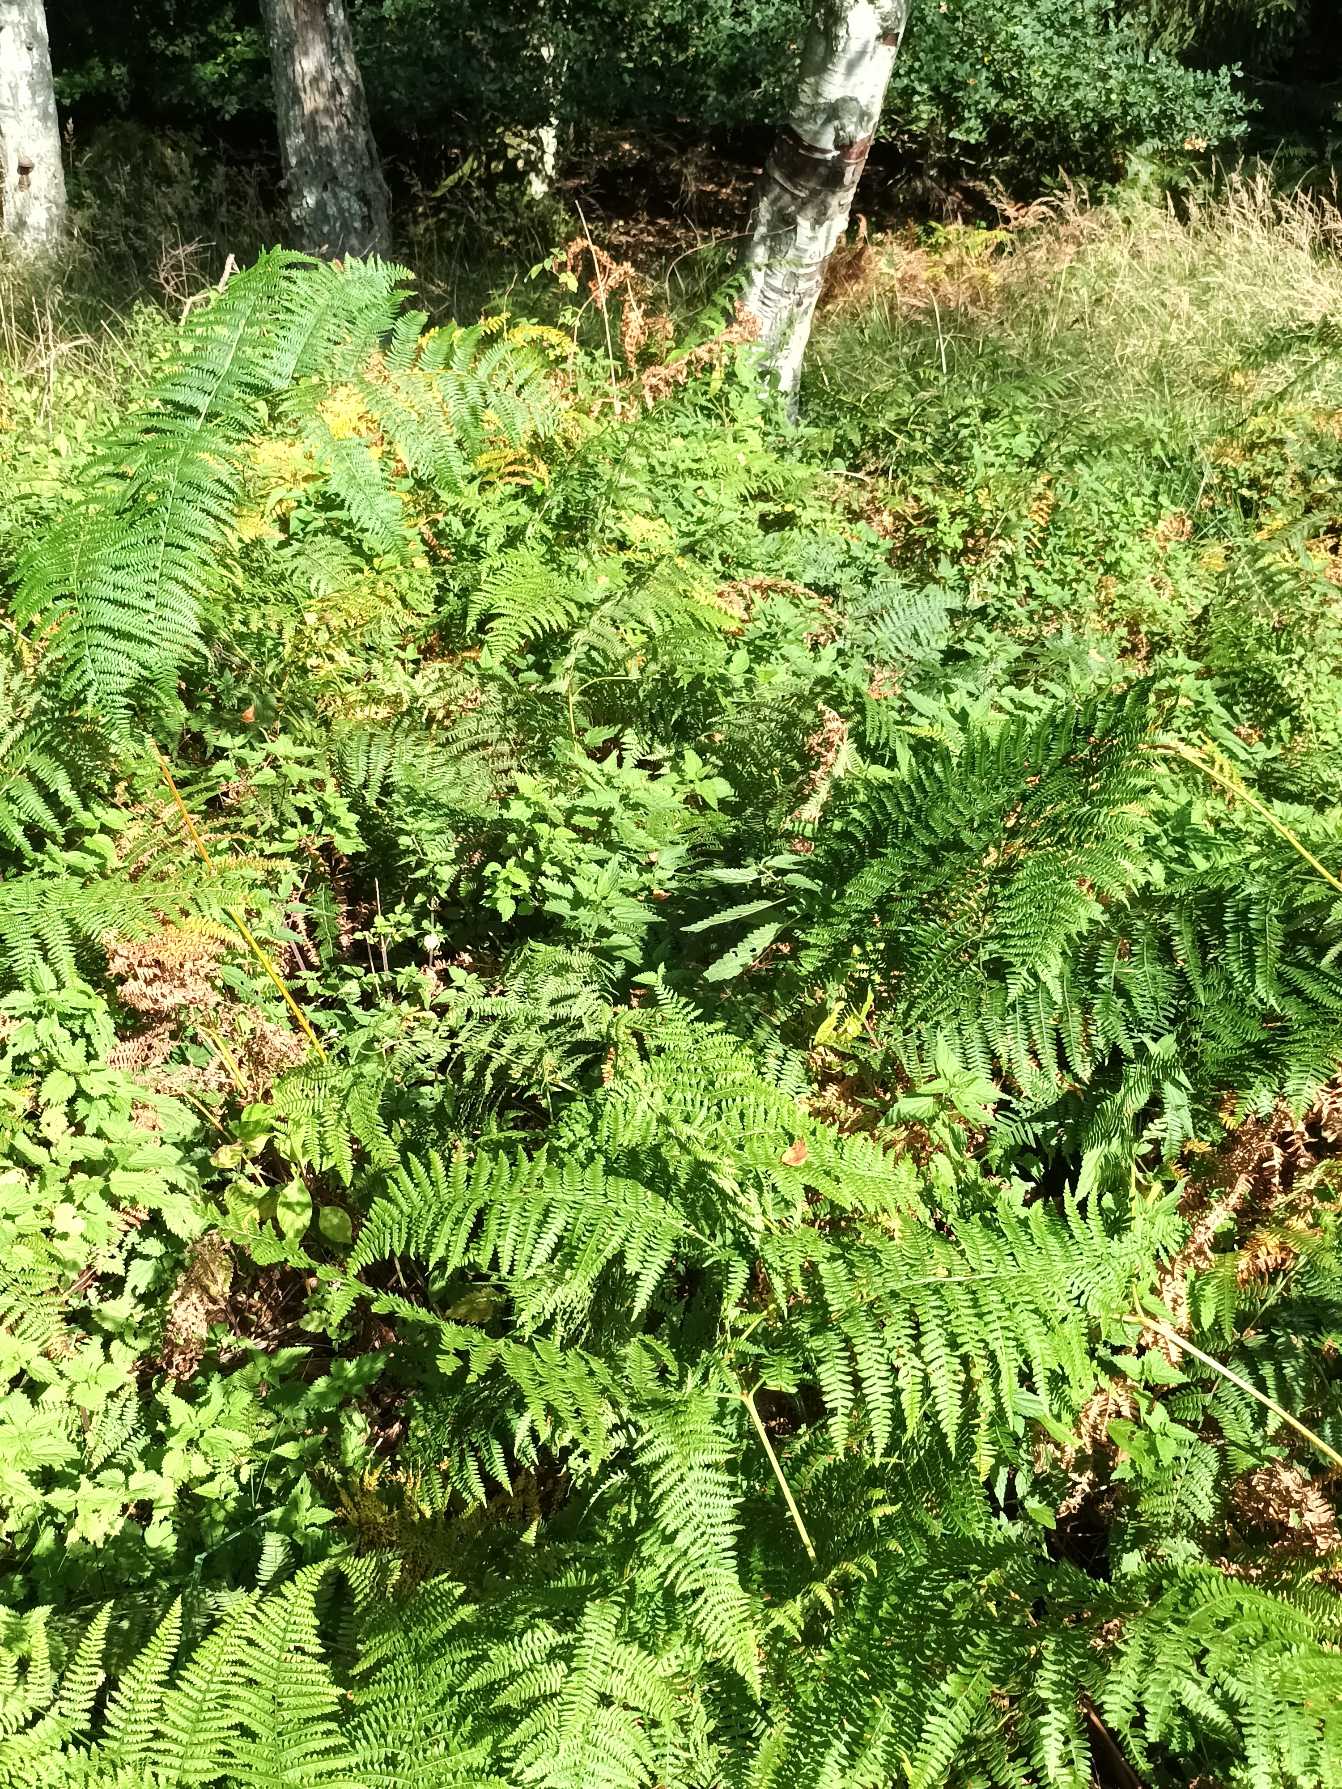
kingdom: Plantae
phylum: Tracheophyta
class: Polypodiopsida
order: Polypodiales
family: Dennstaedtiaceae
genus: Pteridium
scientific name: Pteridium aquilinum
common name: Ørnebregne
